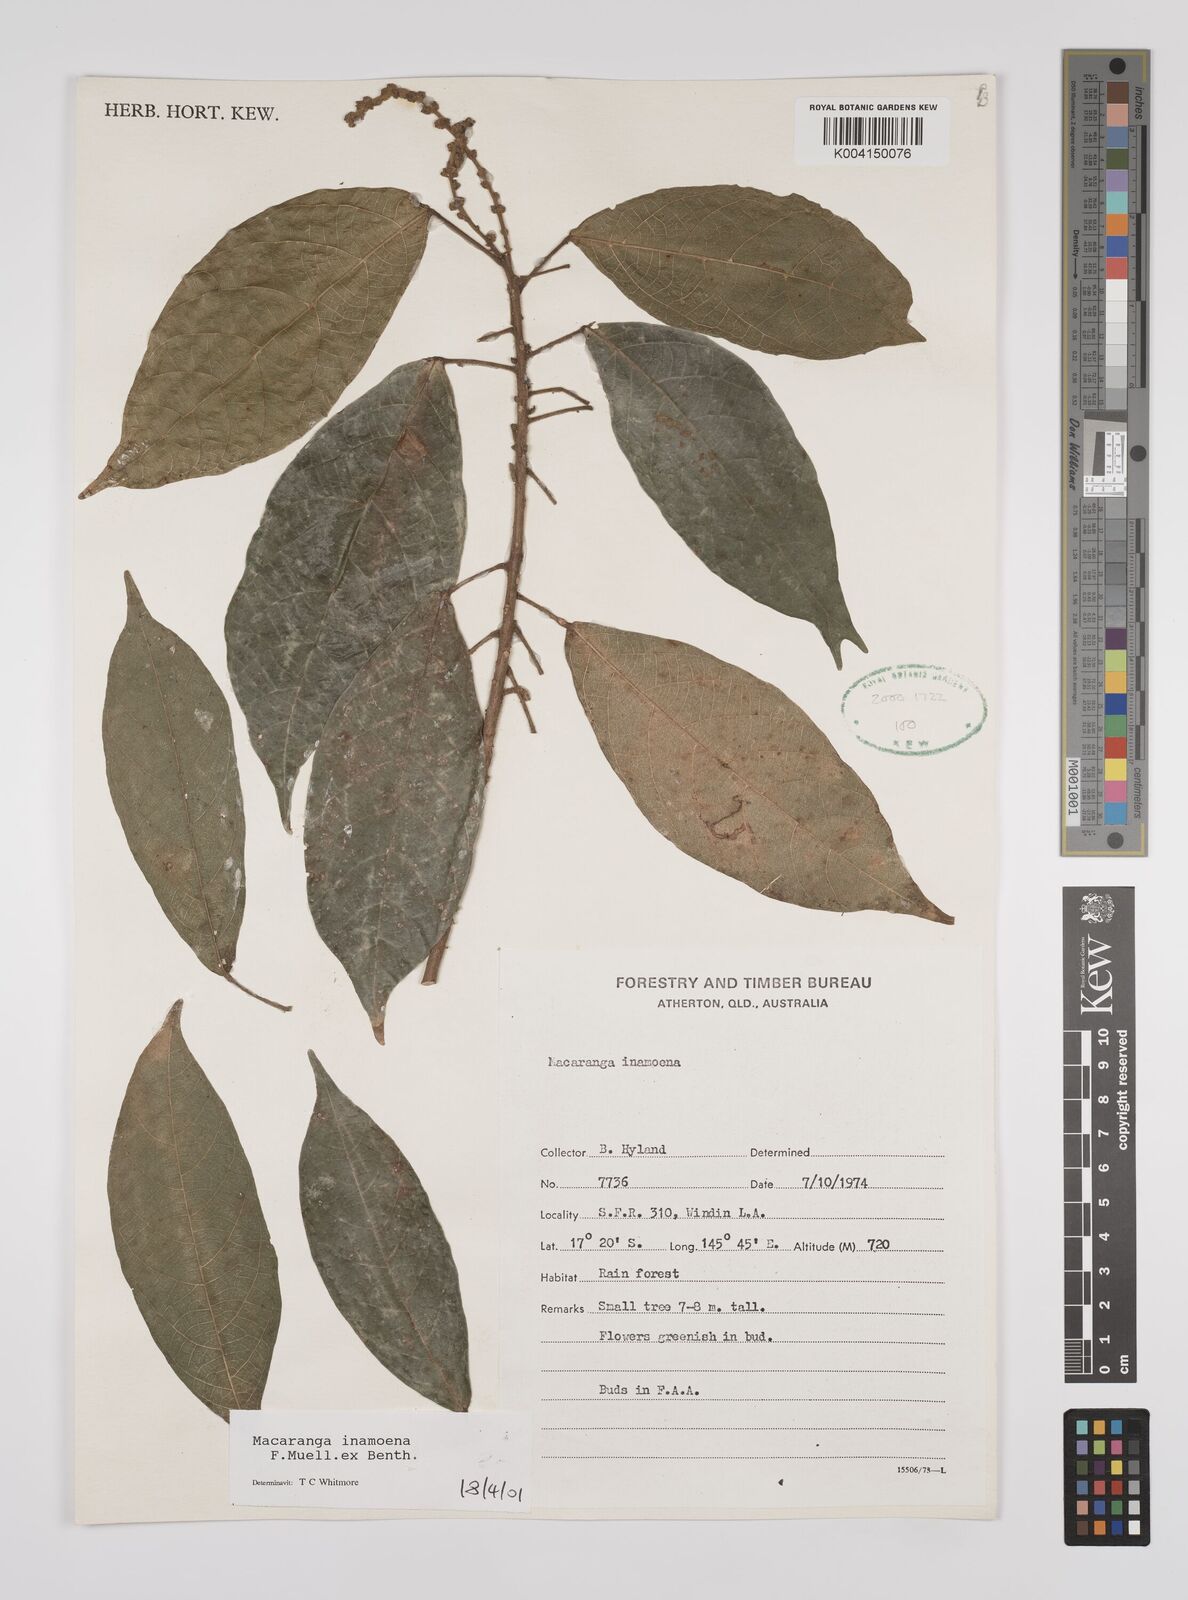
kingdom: Plantae
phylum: Tracheophyta
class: Magnoliopsida
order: Malpighiales
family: Euphorbiaceae
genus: Macaranga
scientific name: Macaranga inamoena
